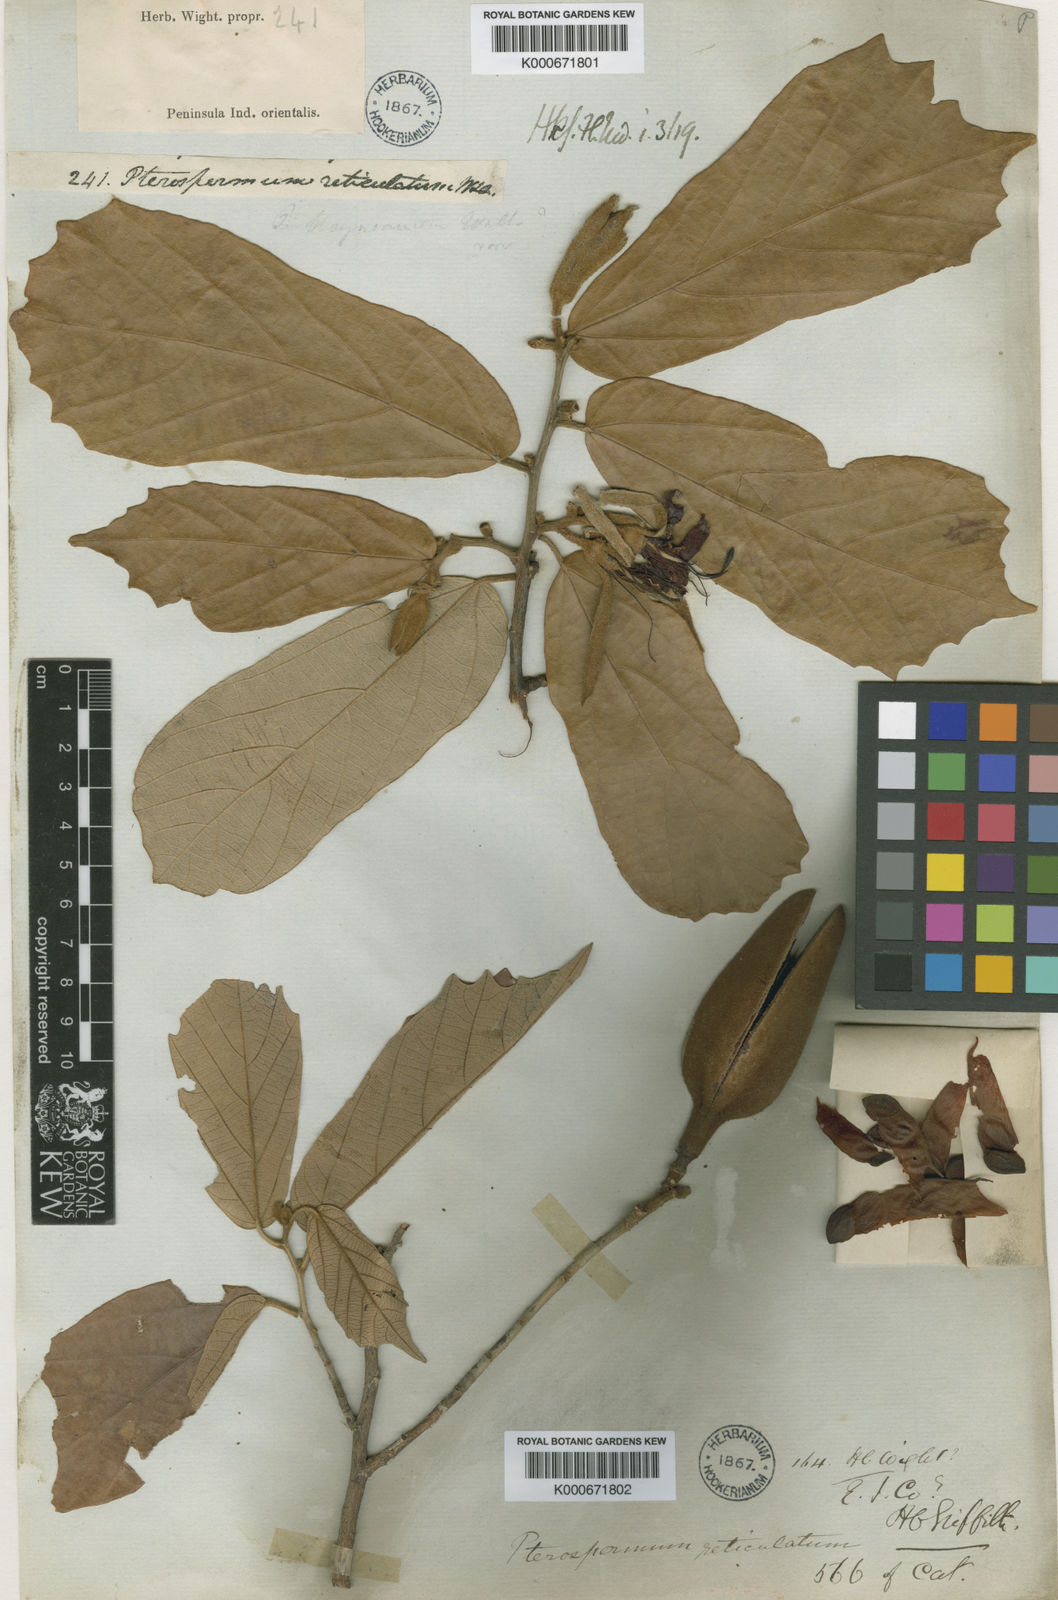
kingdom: Plantae
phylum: Tracheophyta
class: Magnoliopsida
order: Malvales
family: Malvaceae
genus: Pterospermum
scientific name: Pterospermum reticulatum
